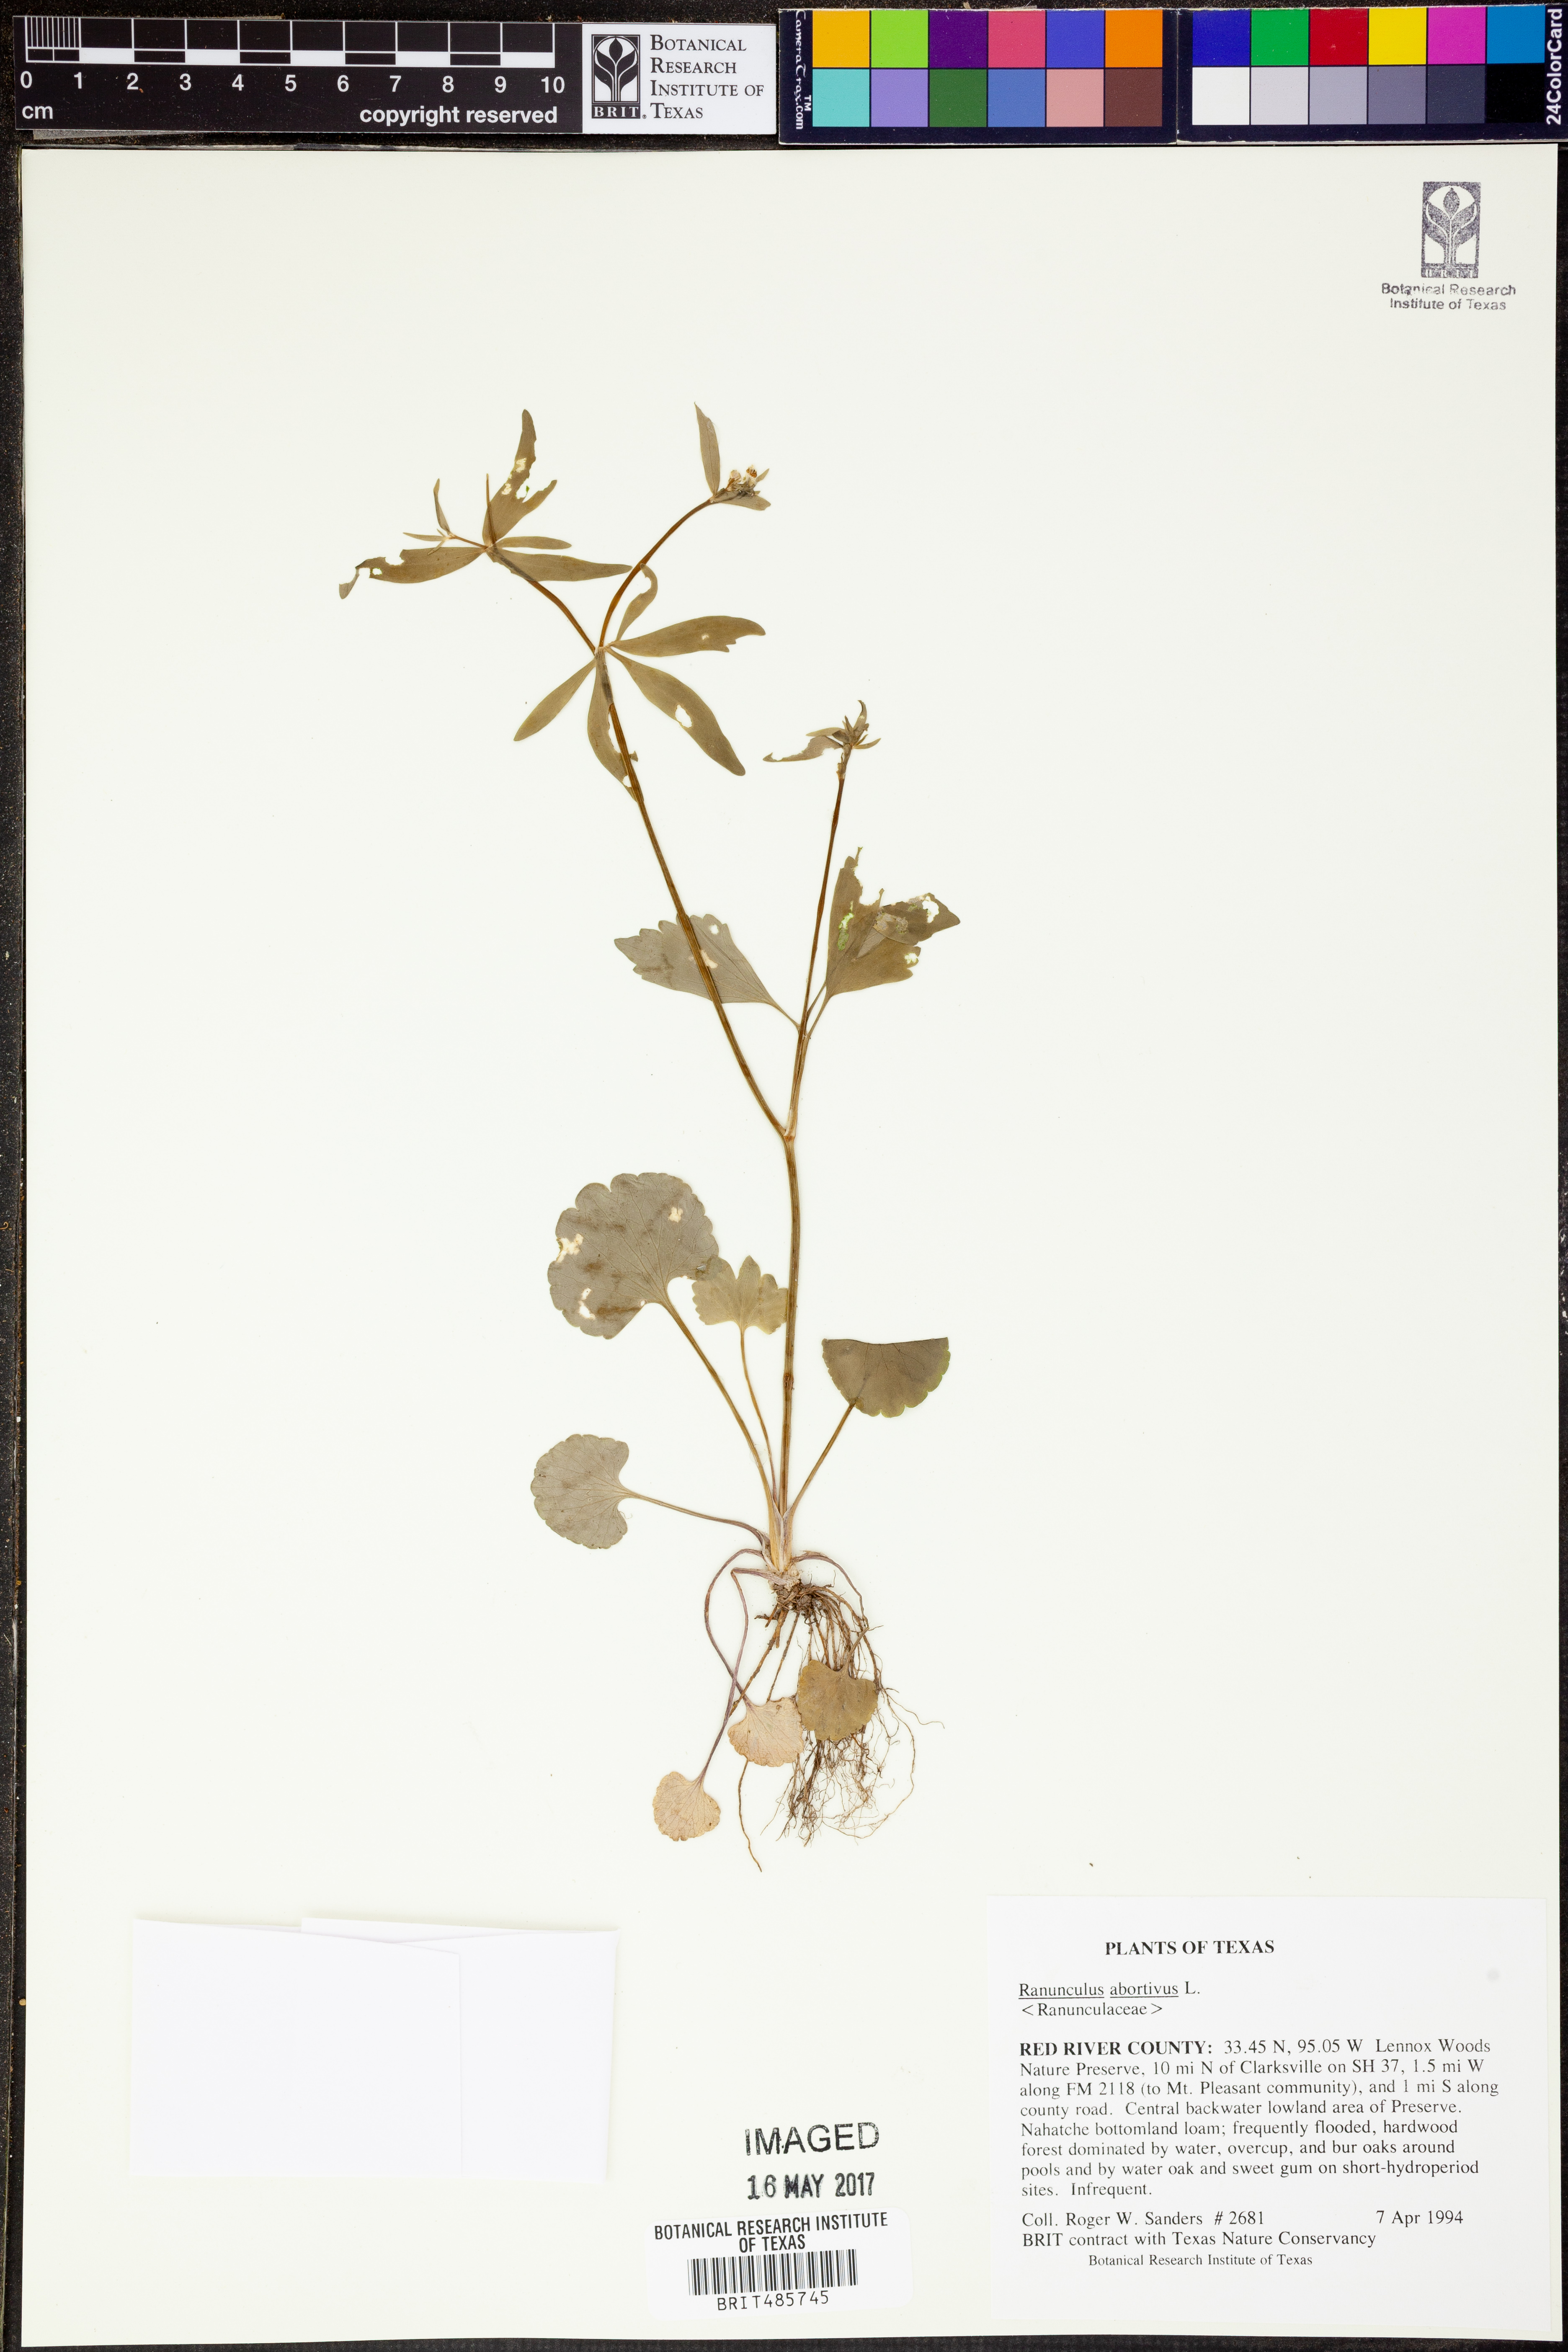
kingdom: Plantae
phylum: Tracheophyta
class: Magnoliopsida
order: Ranunculales
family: Ranunculaceae
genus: Ranunculus
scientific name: Ranunculus abortivus
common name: Early wood buttercup
